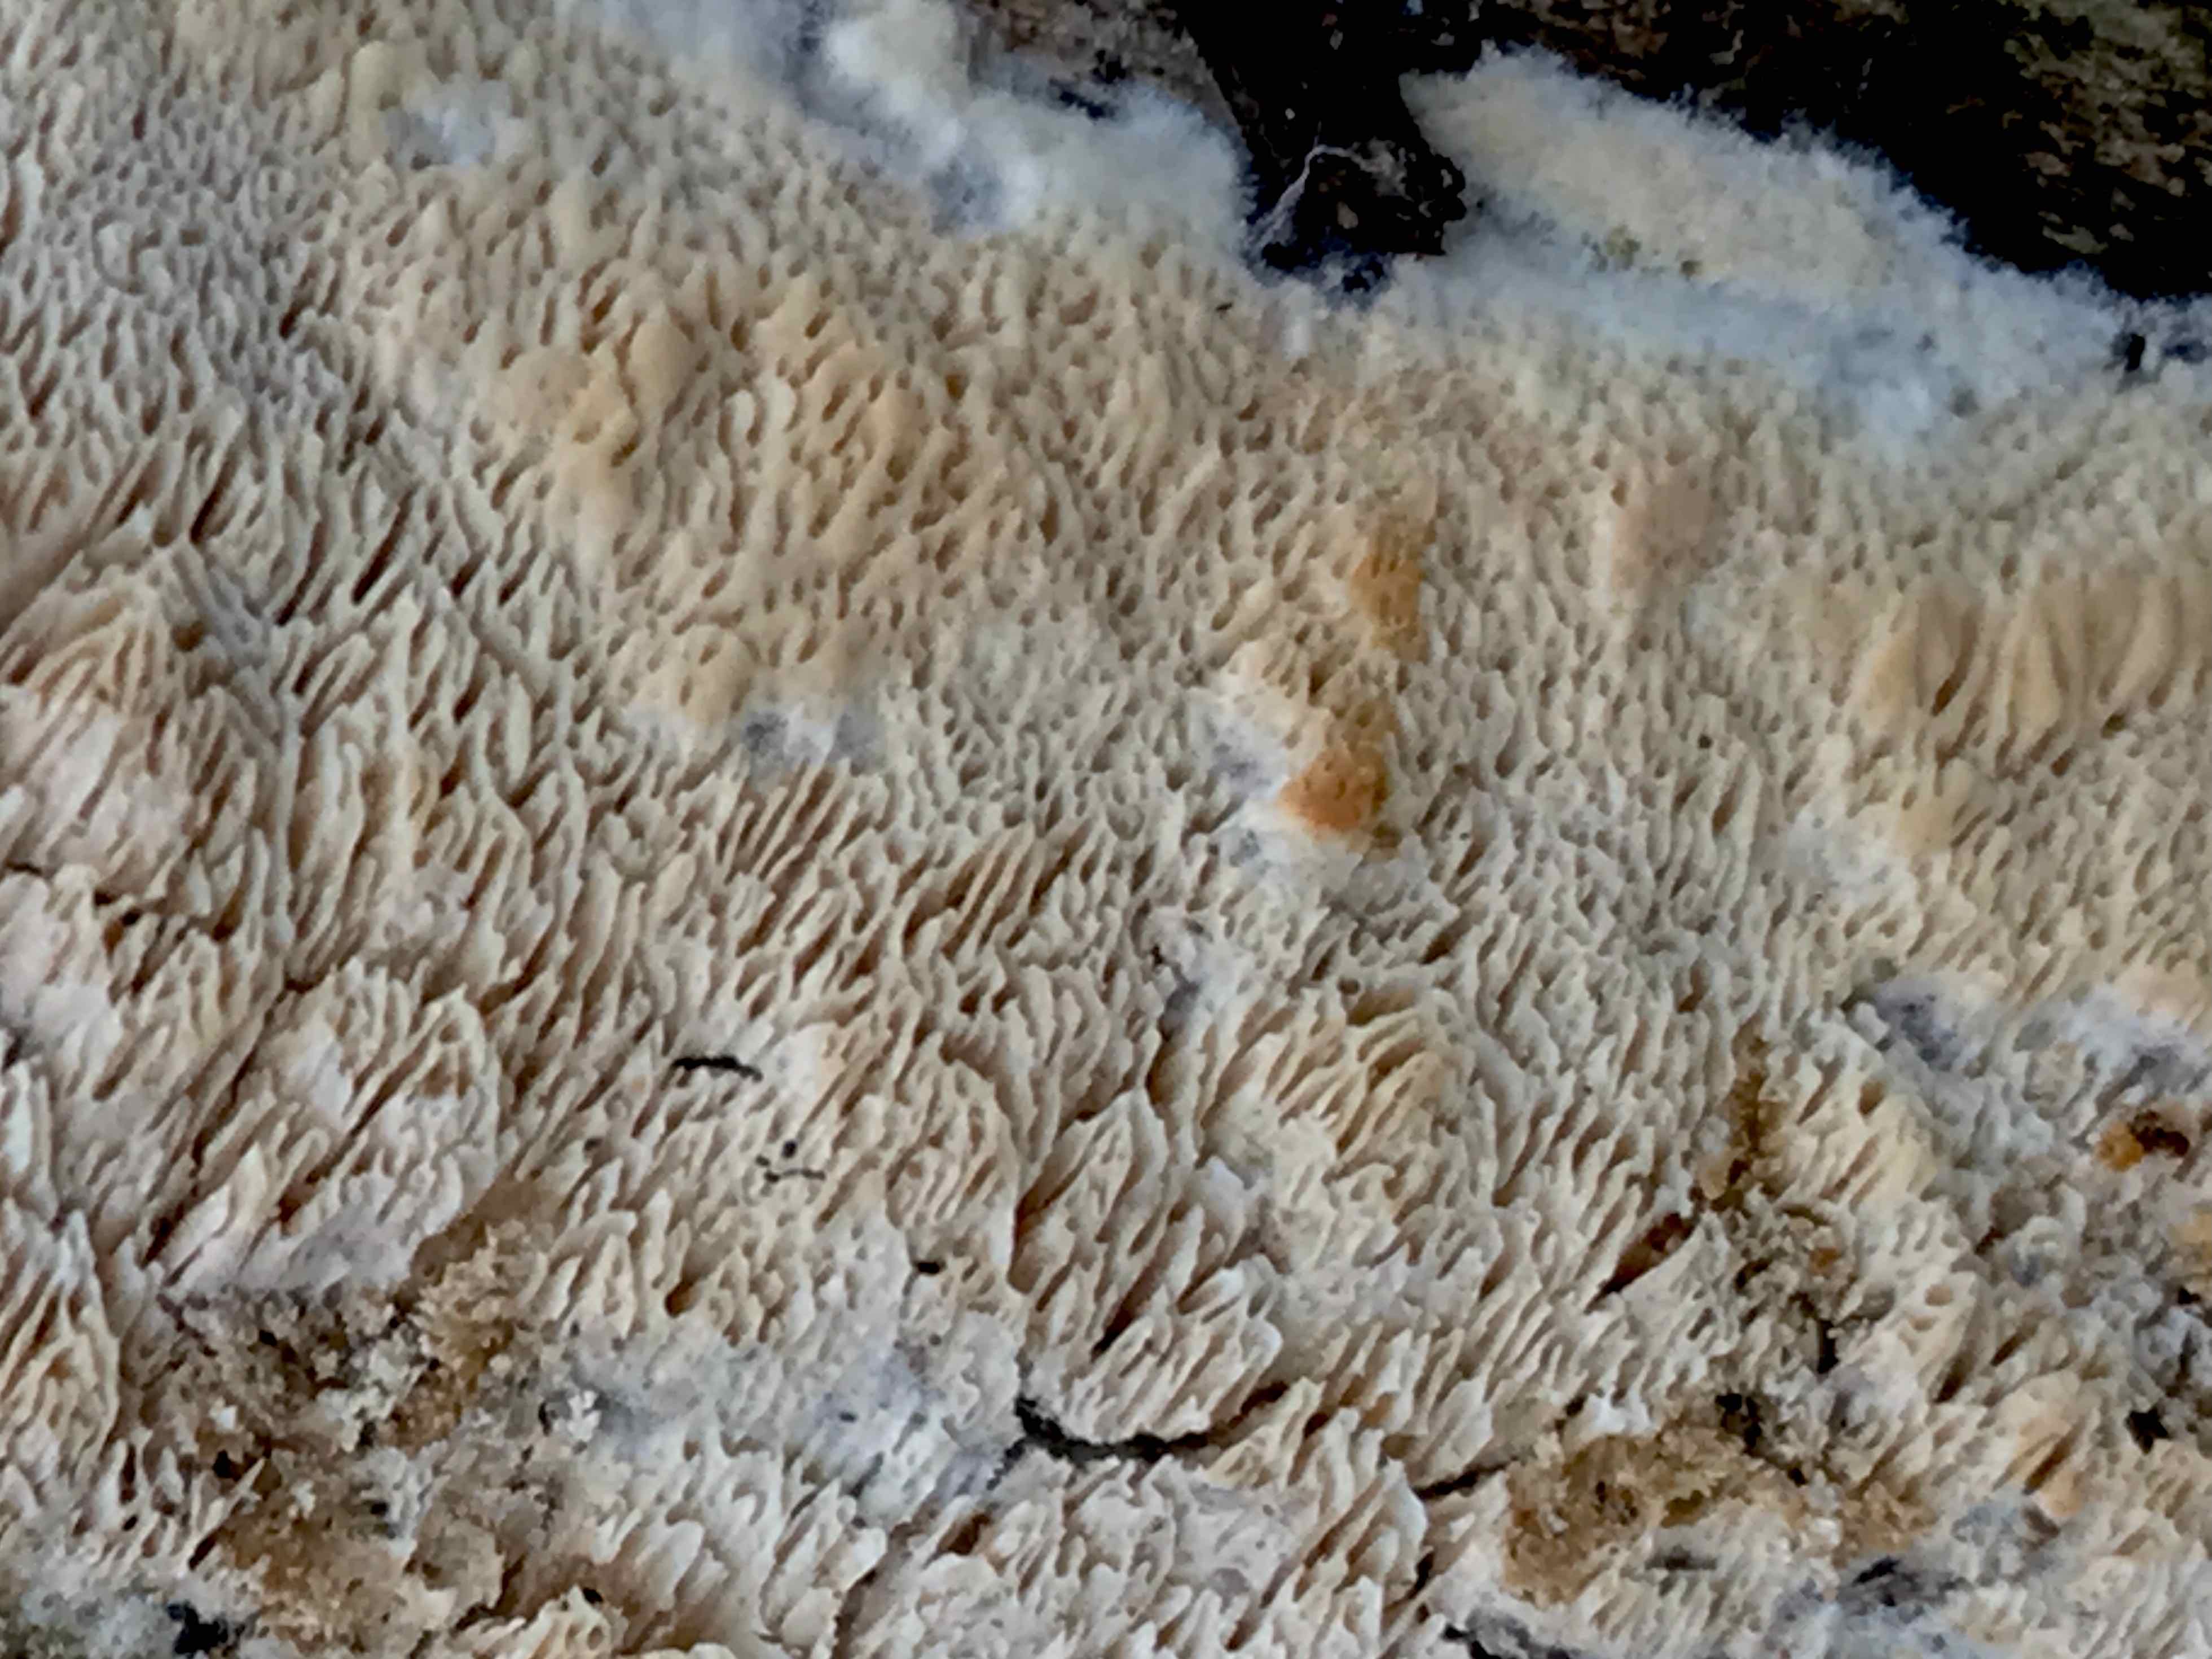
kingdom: Fungi
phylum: Basidiomycota
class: Agaricomycetes
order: Hymenochaetales
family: Schizoporaceae
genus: Xylodon
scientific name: Xylodon subtropicus
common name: labyrint-tandsvamp
